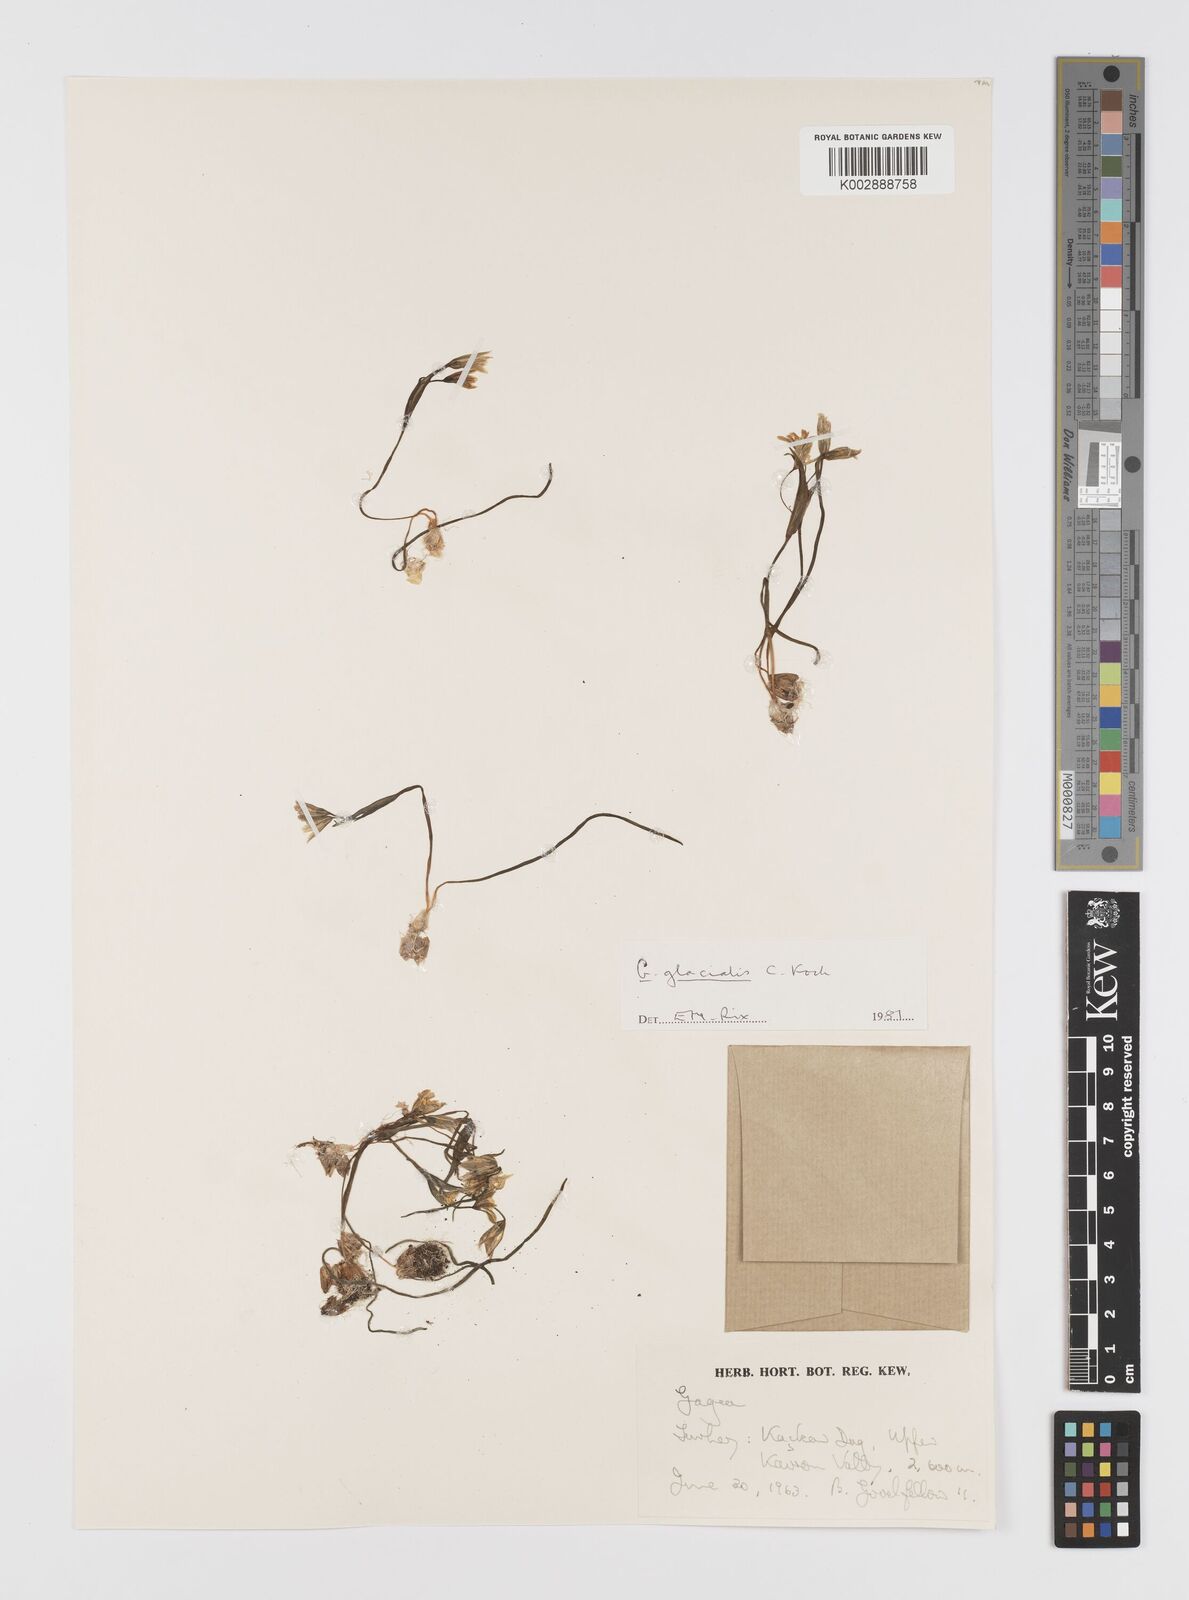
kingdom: Plantae
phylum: Tracheophyta
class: Liliopsida
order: Liliales
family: Liliaceae
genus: Gagea
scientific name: Gagea glacialis
